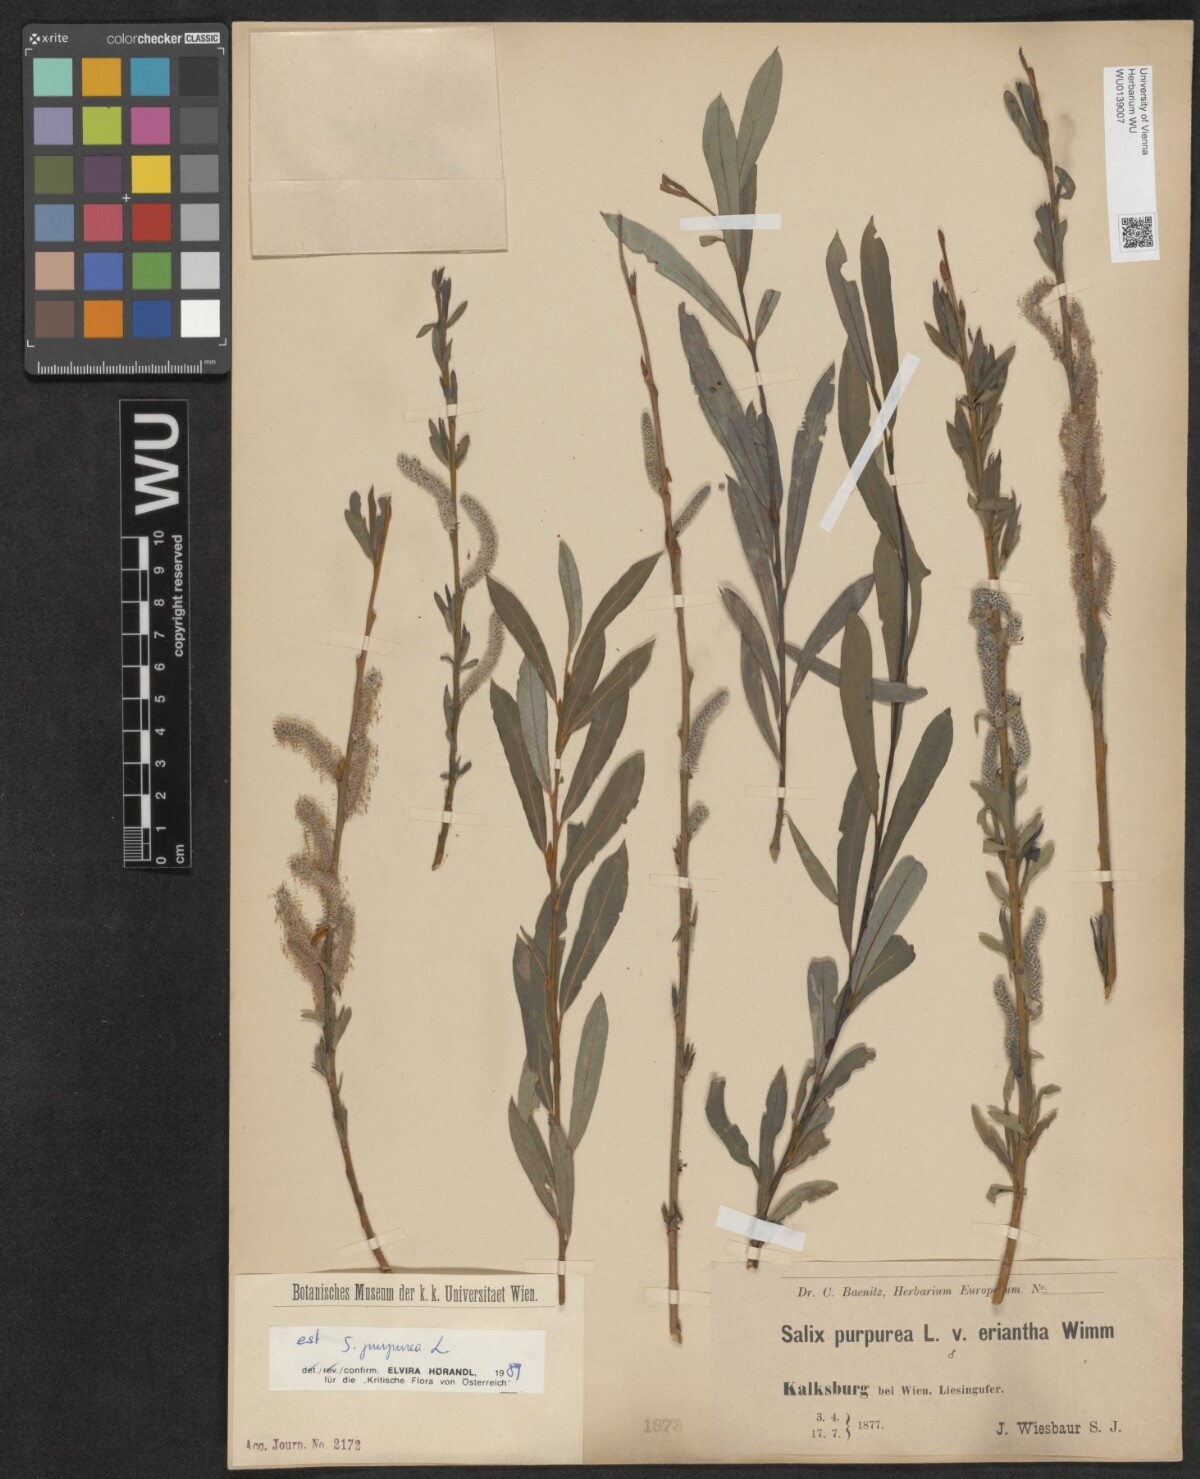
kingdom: Plantae
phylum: Tracheophyta
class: Magnoliopsida
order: Malpighiales
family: Salicaceae
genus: Salix
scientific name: Salix purpurea
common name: Purple willow
